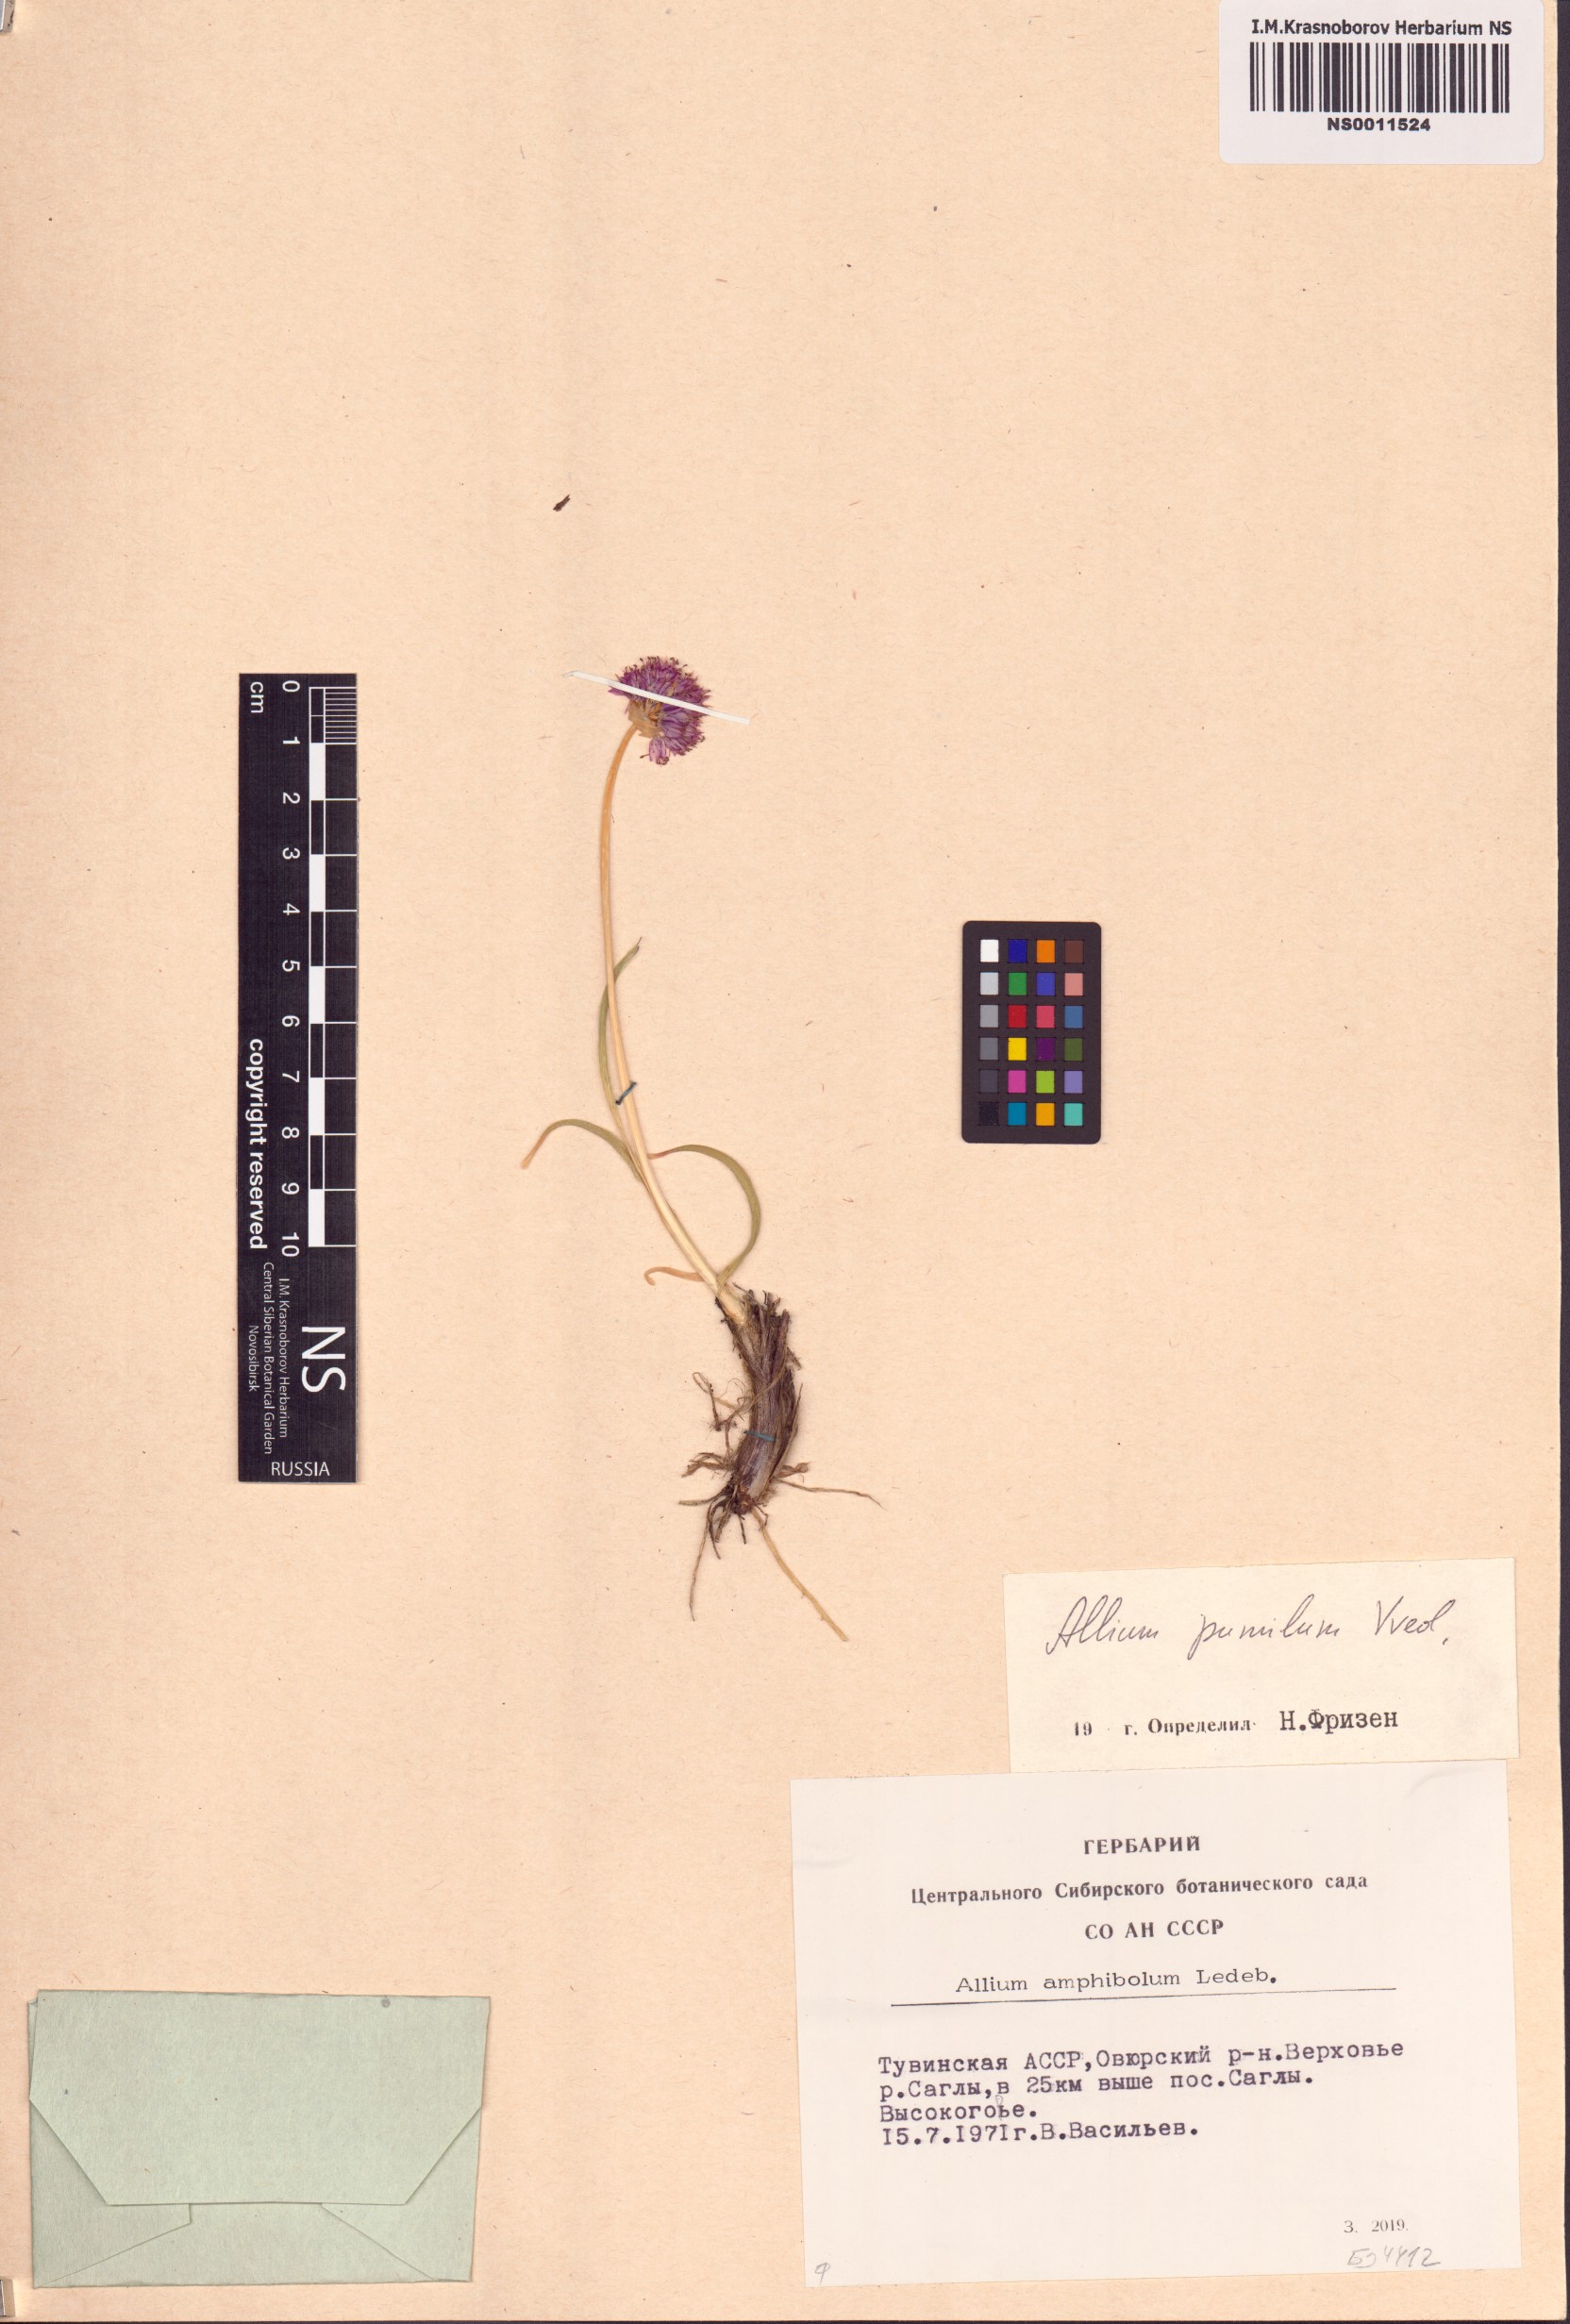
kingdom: Plantae
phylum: Tracheophyta
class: Liliopsida
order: Asparagales
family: Amaryllidaceae
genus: Allium
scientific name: Allium pumilum
